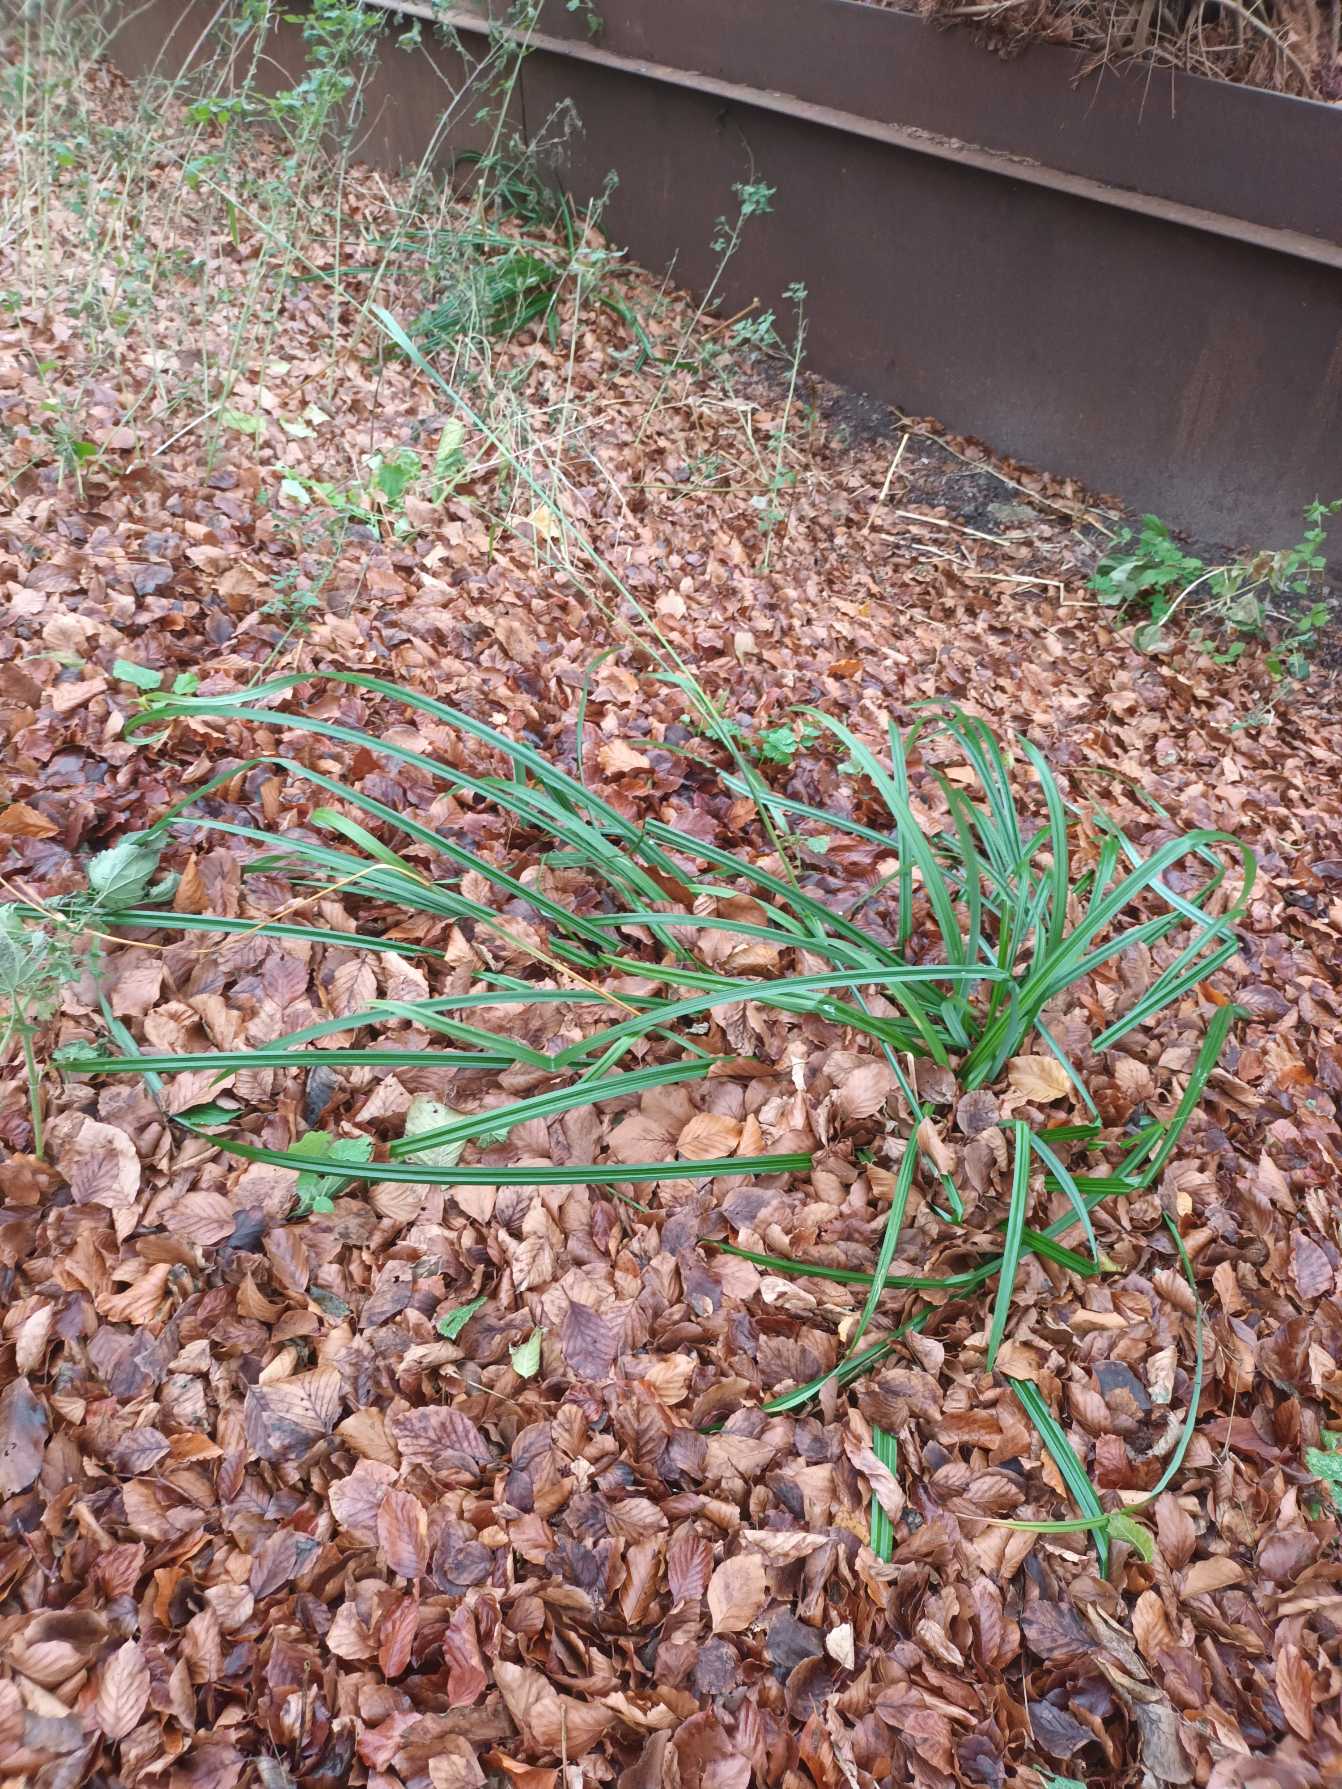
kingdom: Plantae
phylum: Tracheophyta
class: Liliopsida
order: Poales
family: Cyperaceae
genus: Carex
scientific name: Carex pendula
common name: Kæmpe-star
